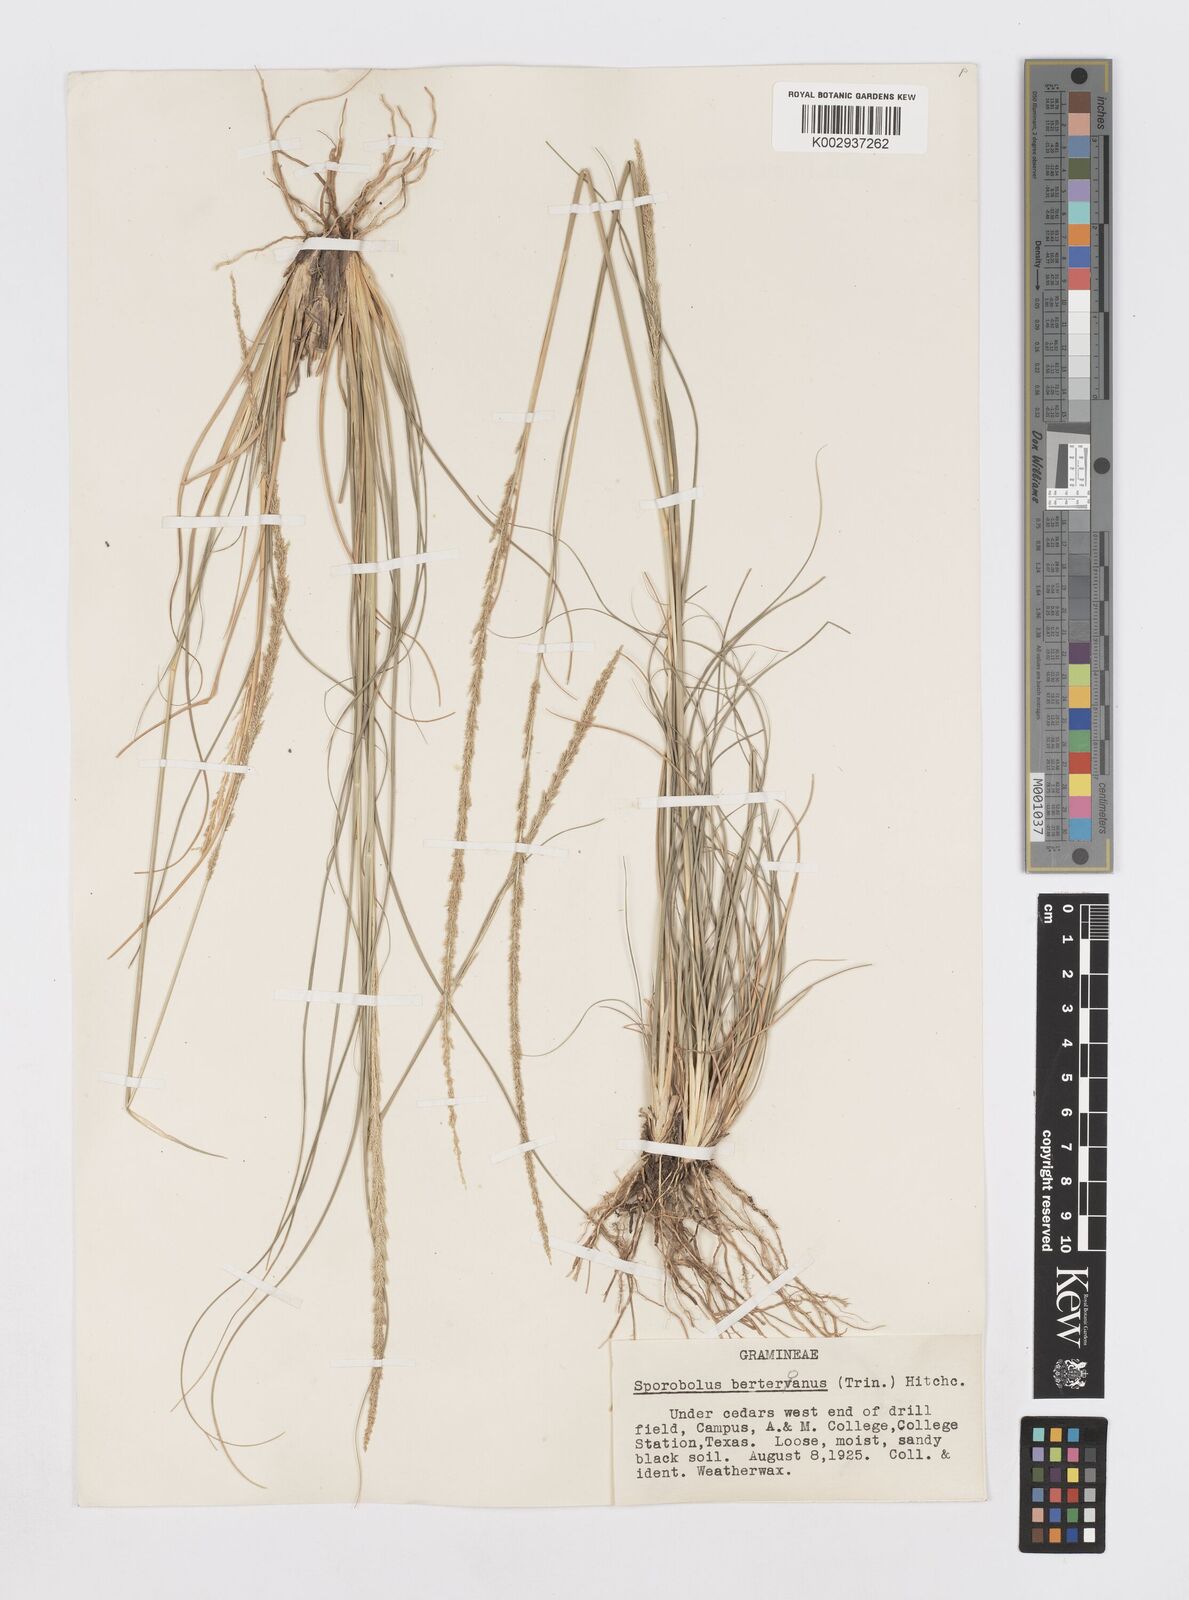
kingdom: Plantae
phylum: Tracheophyta
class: Liliopsida
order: Poales
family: Poaceae
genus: Sporobolus
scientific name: Sporobolus indicus
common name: Smut grass
